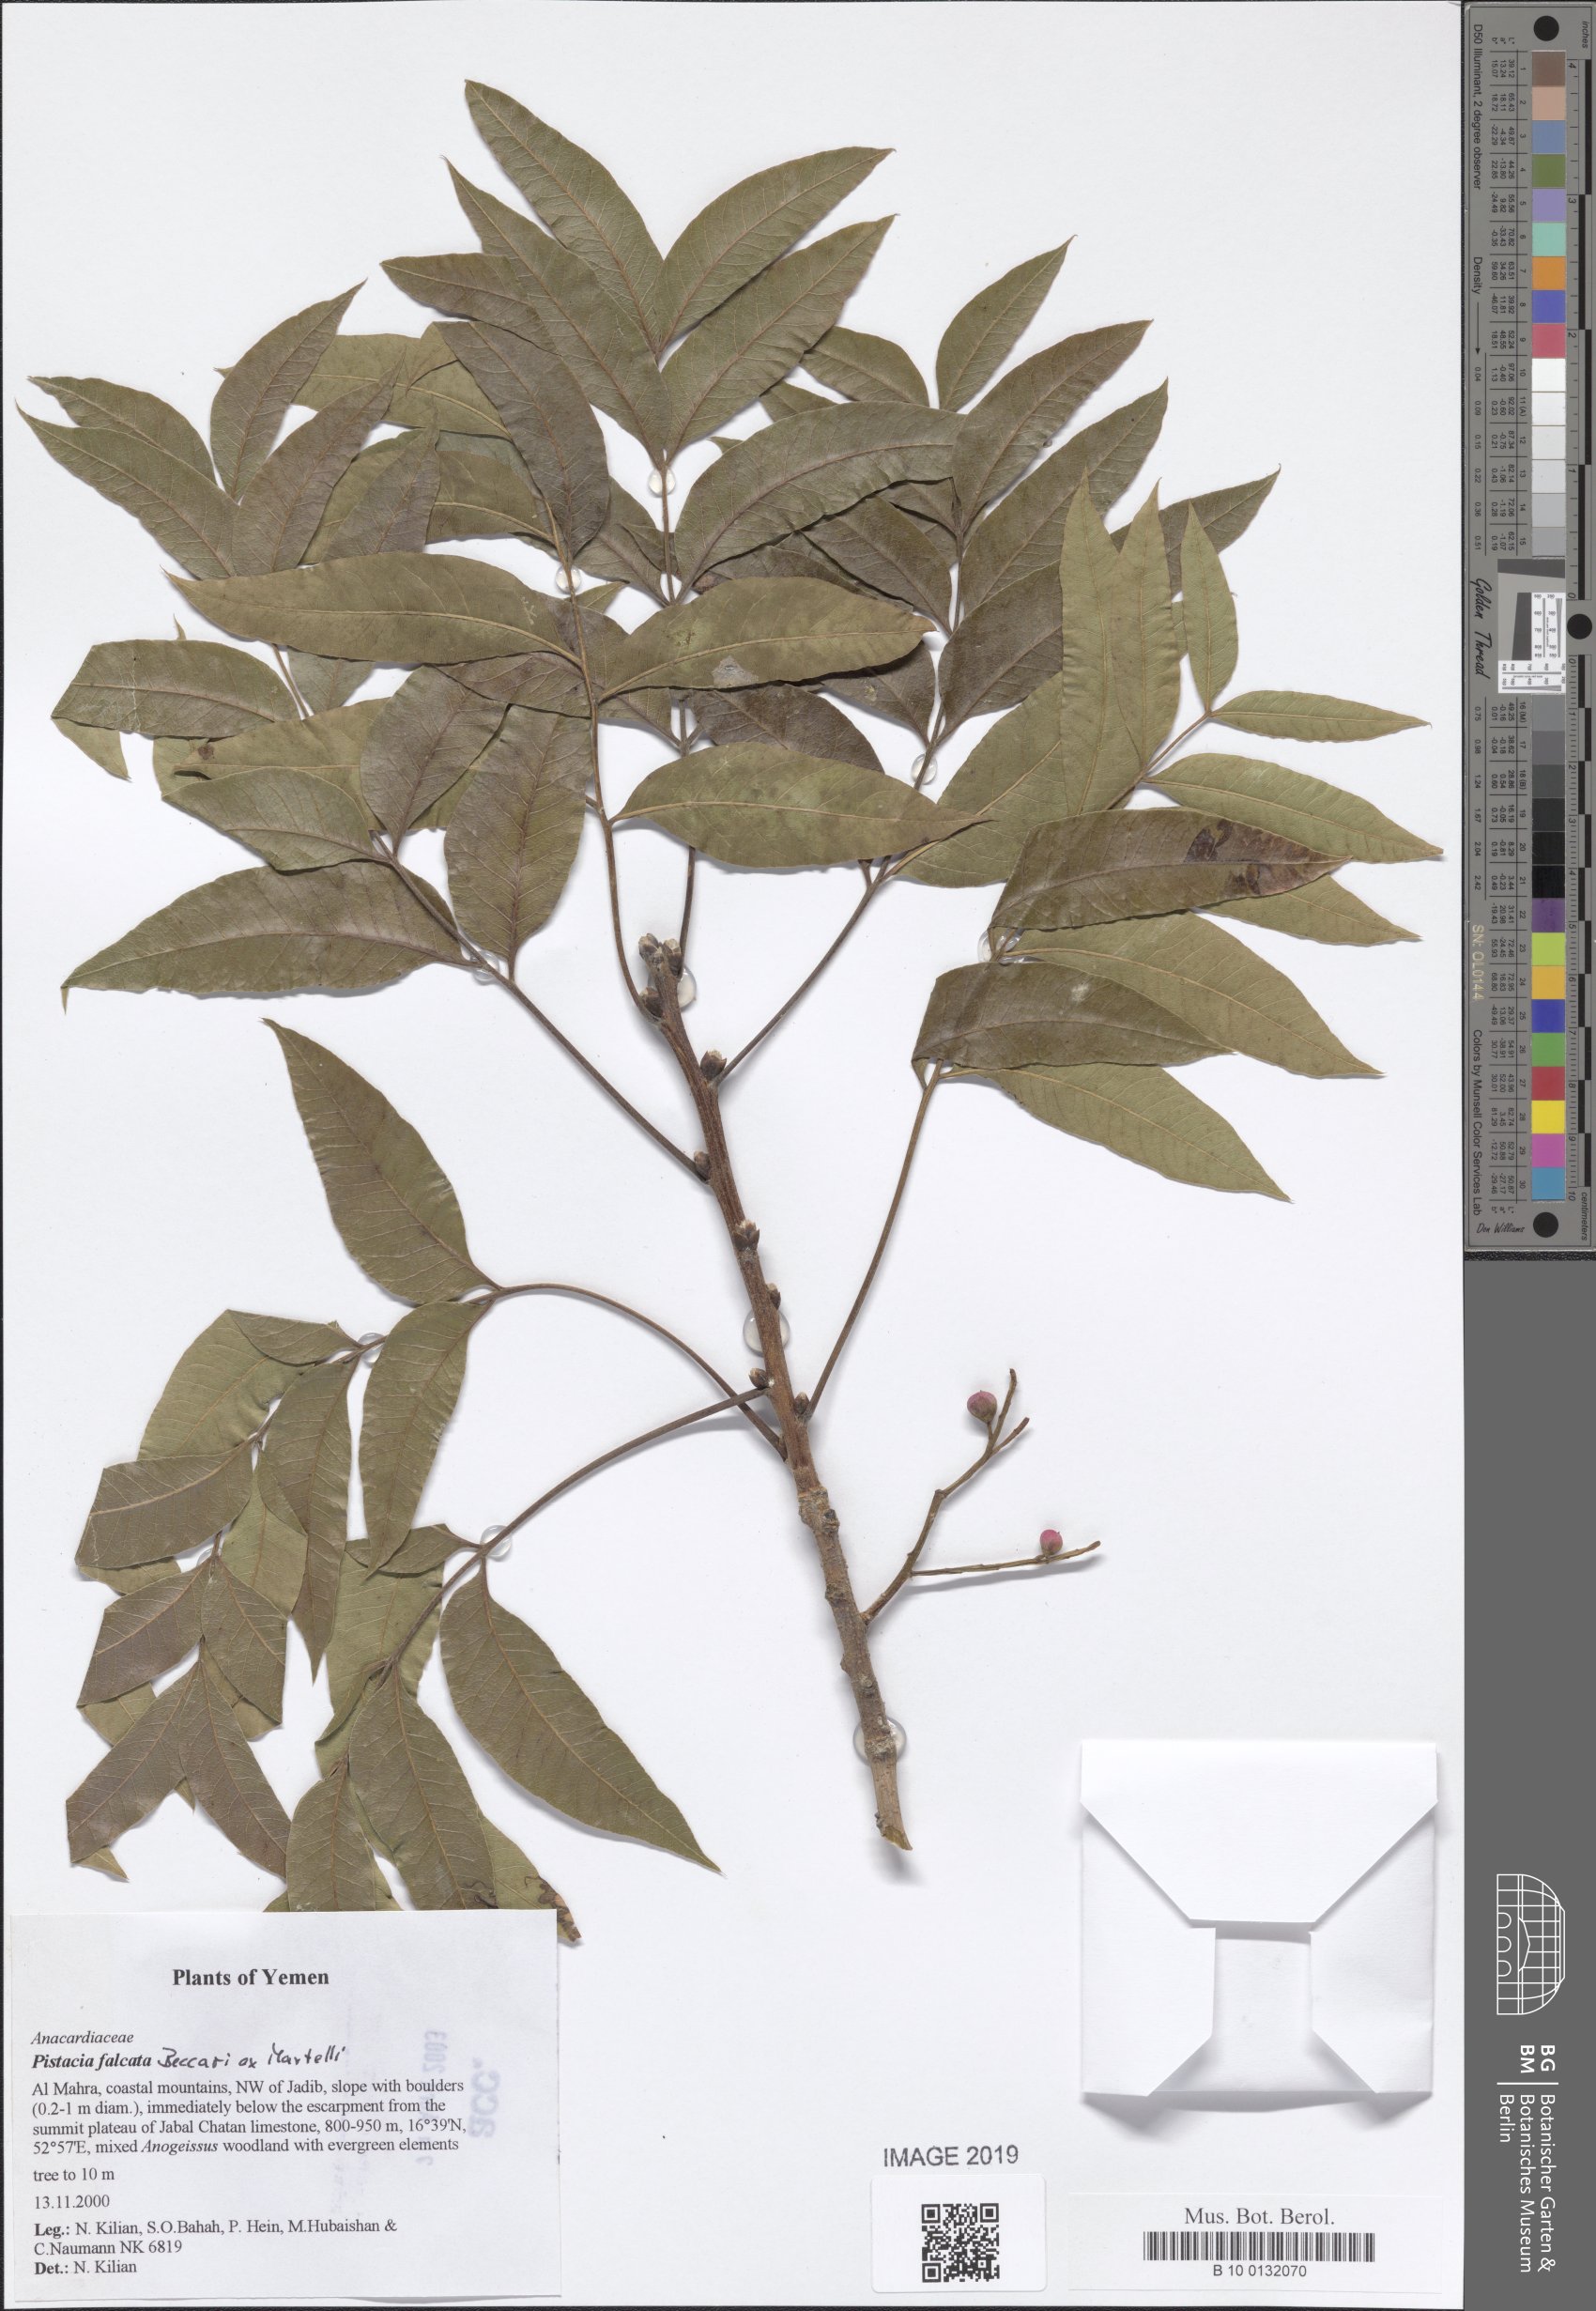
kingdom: Plantae
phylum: Tracheophyta
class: Magnoliopsida
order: Sapindales
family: Anacardiaceae
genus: Pistacia
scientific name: Pistacia falcata
